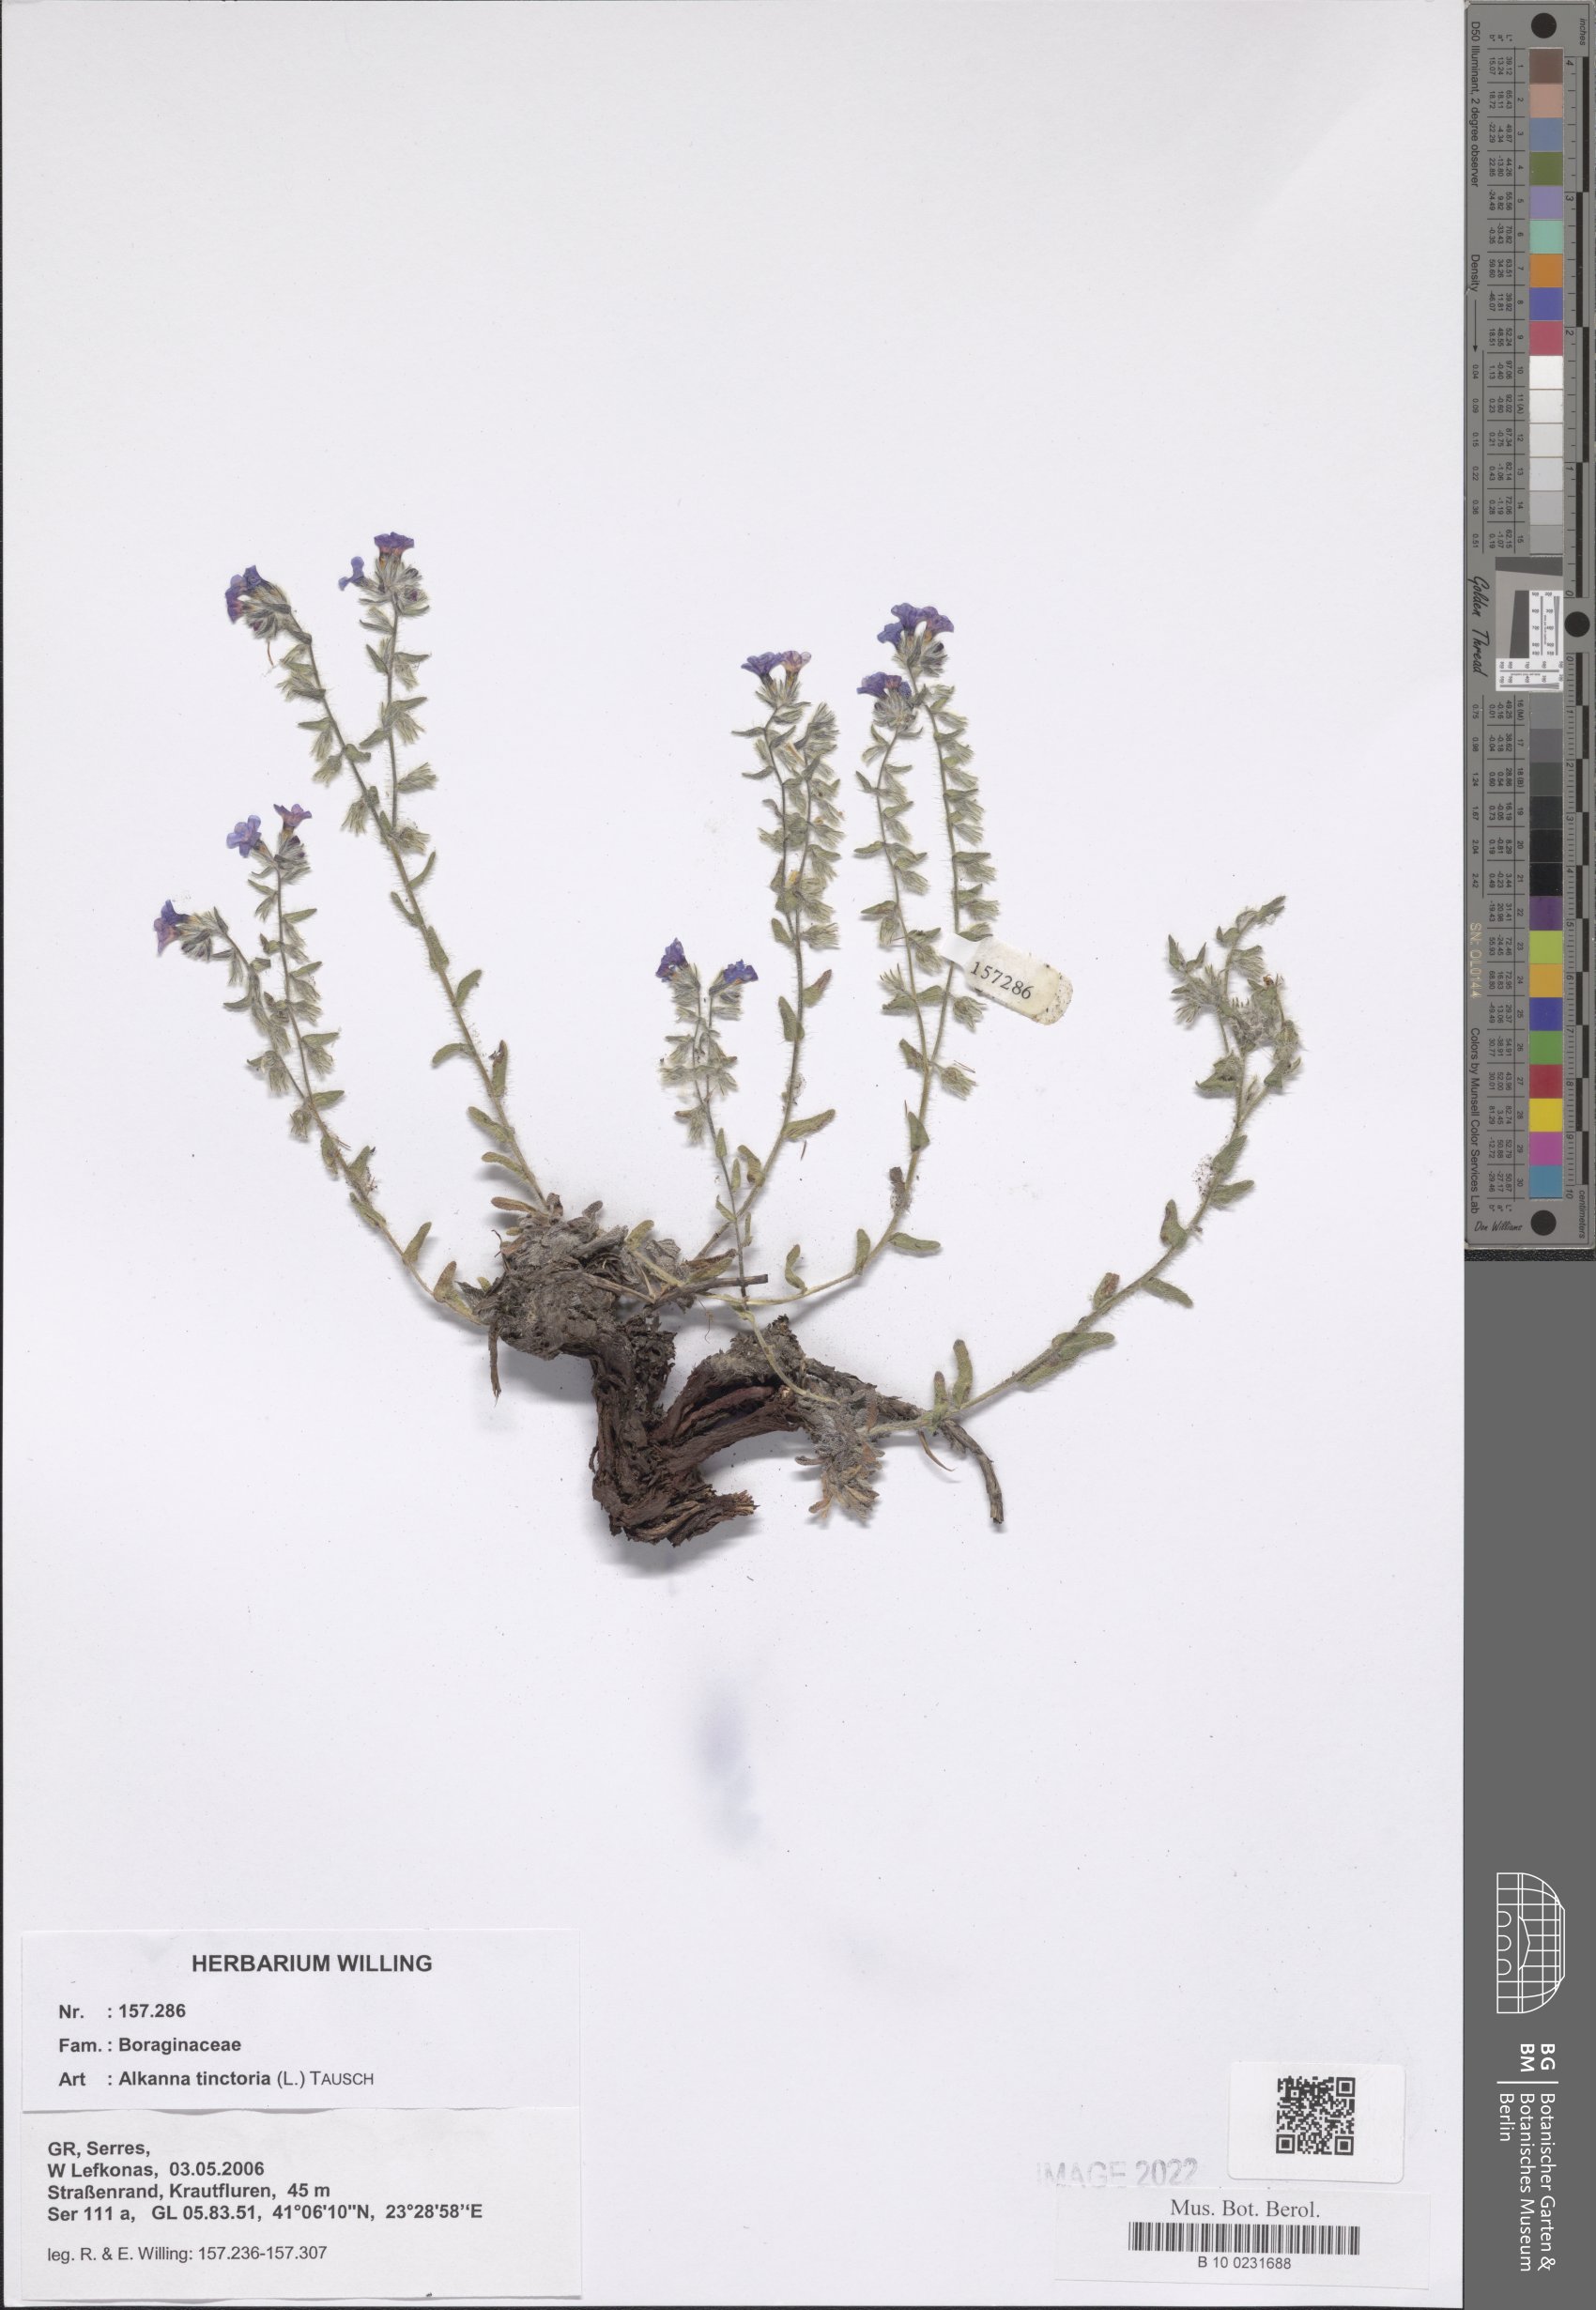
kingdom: Plantae
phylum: Tracheophyta
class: Magnoliopsida
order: Boraginales
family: Boraginaceae
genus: Alkanna
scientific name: Alkanna tinctoria
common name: Dyer's-alkanet
